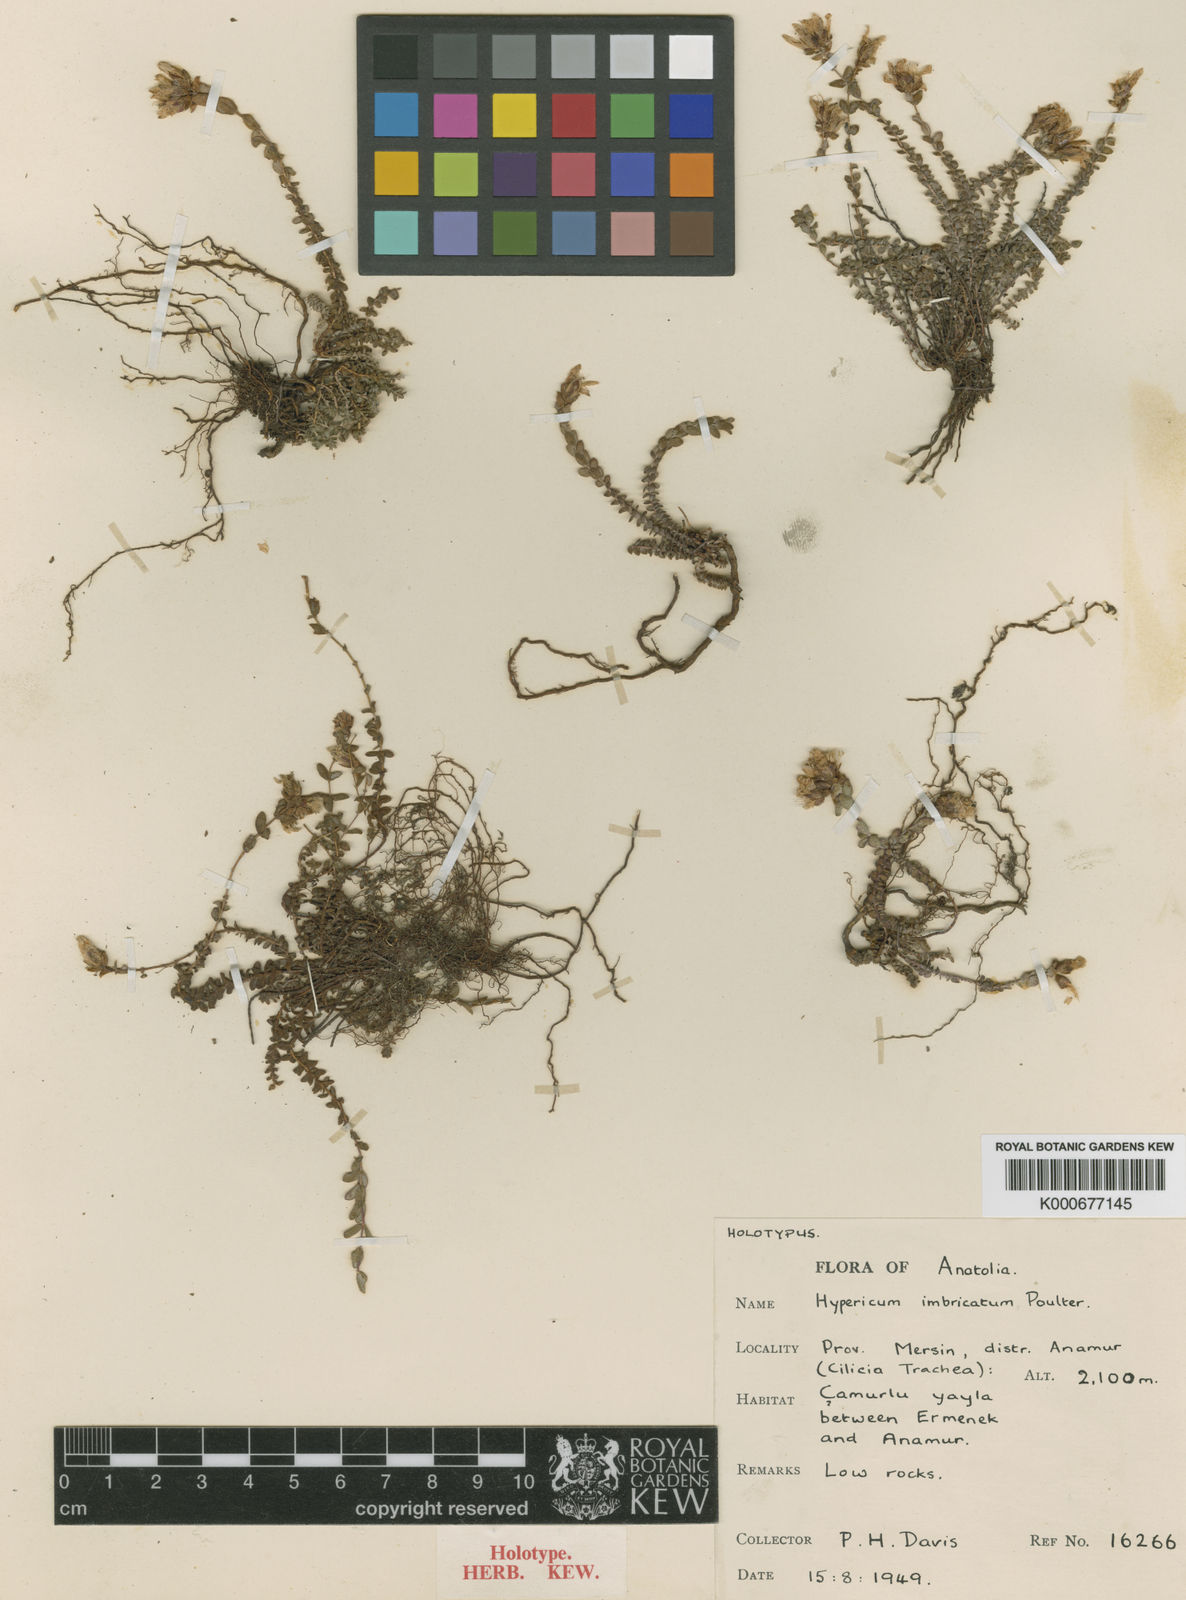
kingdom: Plantae
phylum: Tracheophyta
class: Magnoliopsida
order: Malpighiales
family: Hypericaceae
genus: Hypericum
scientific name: Hypericum imbricatum
